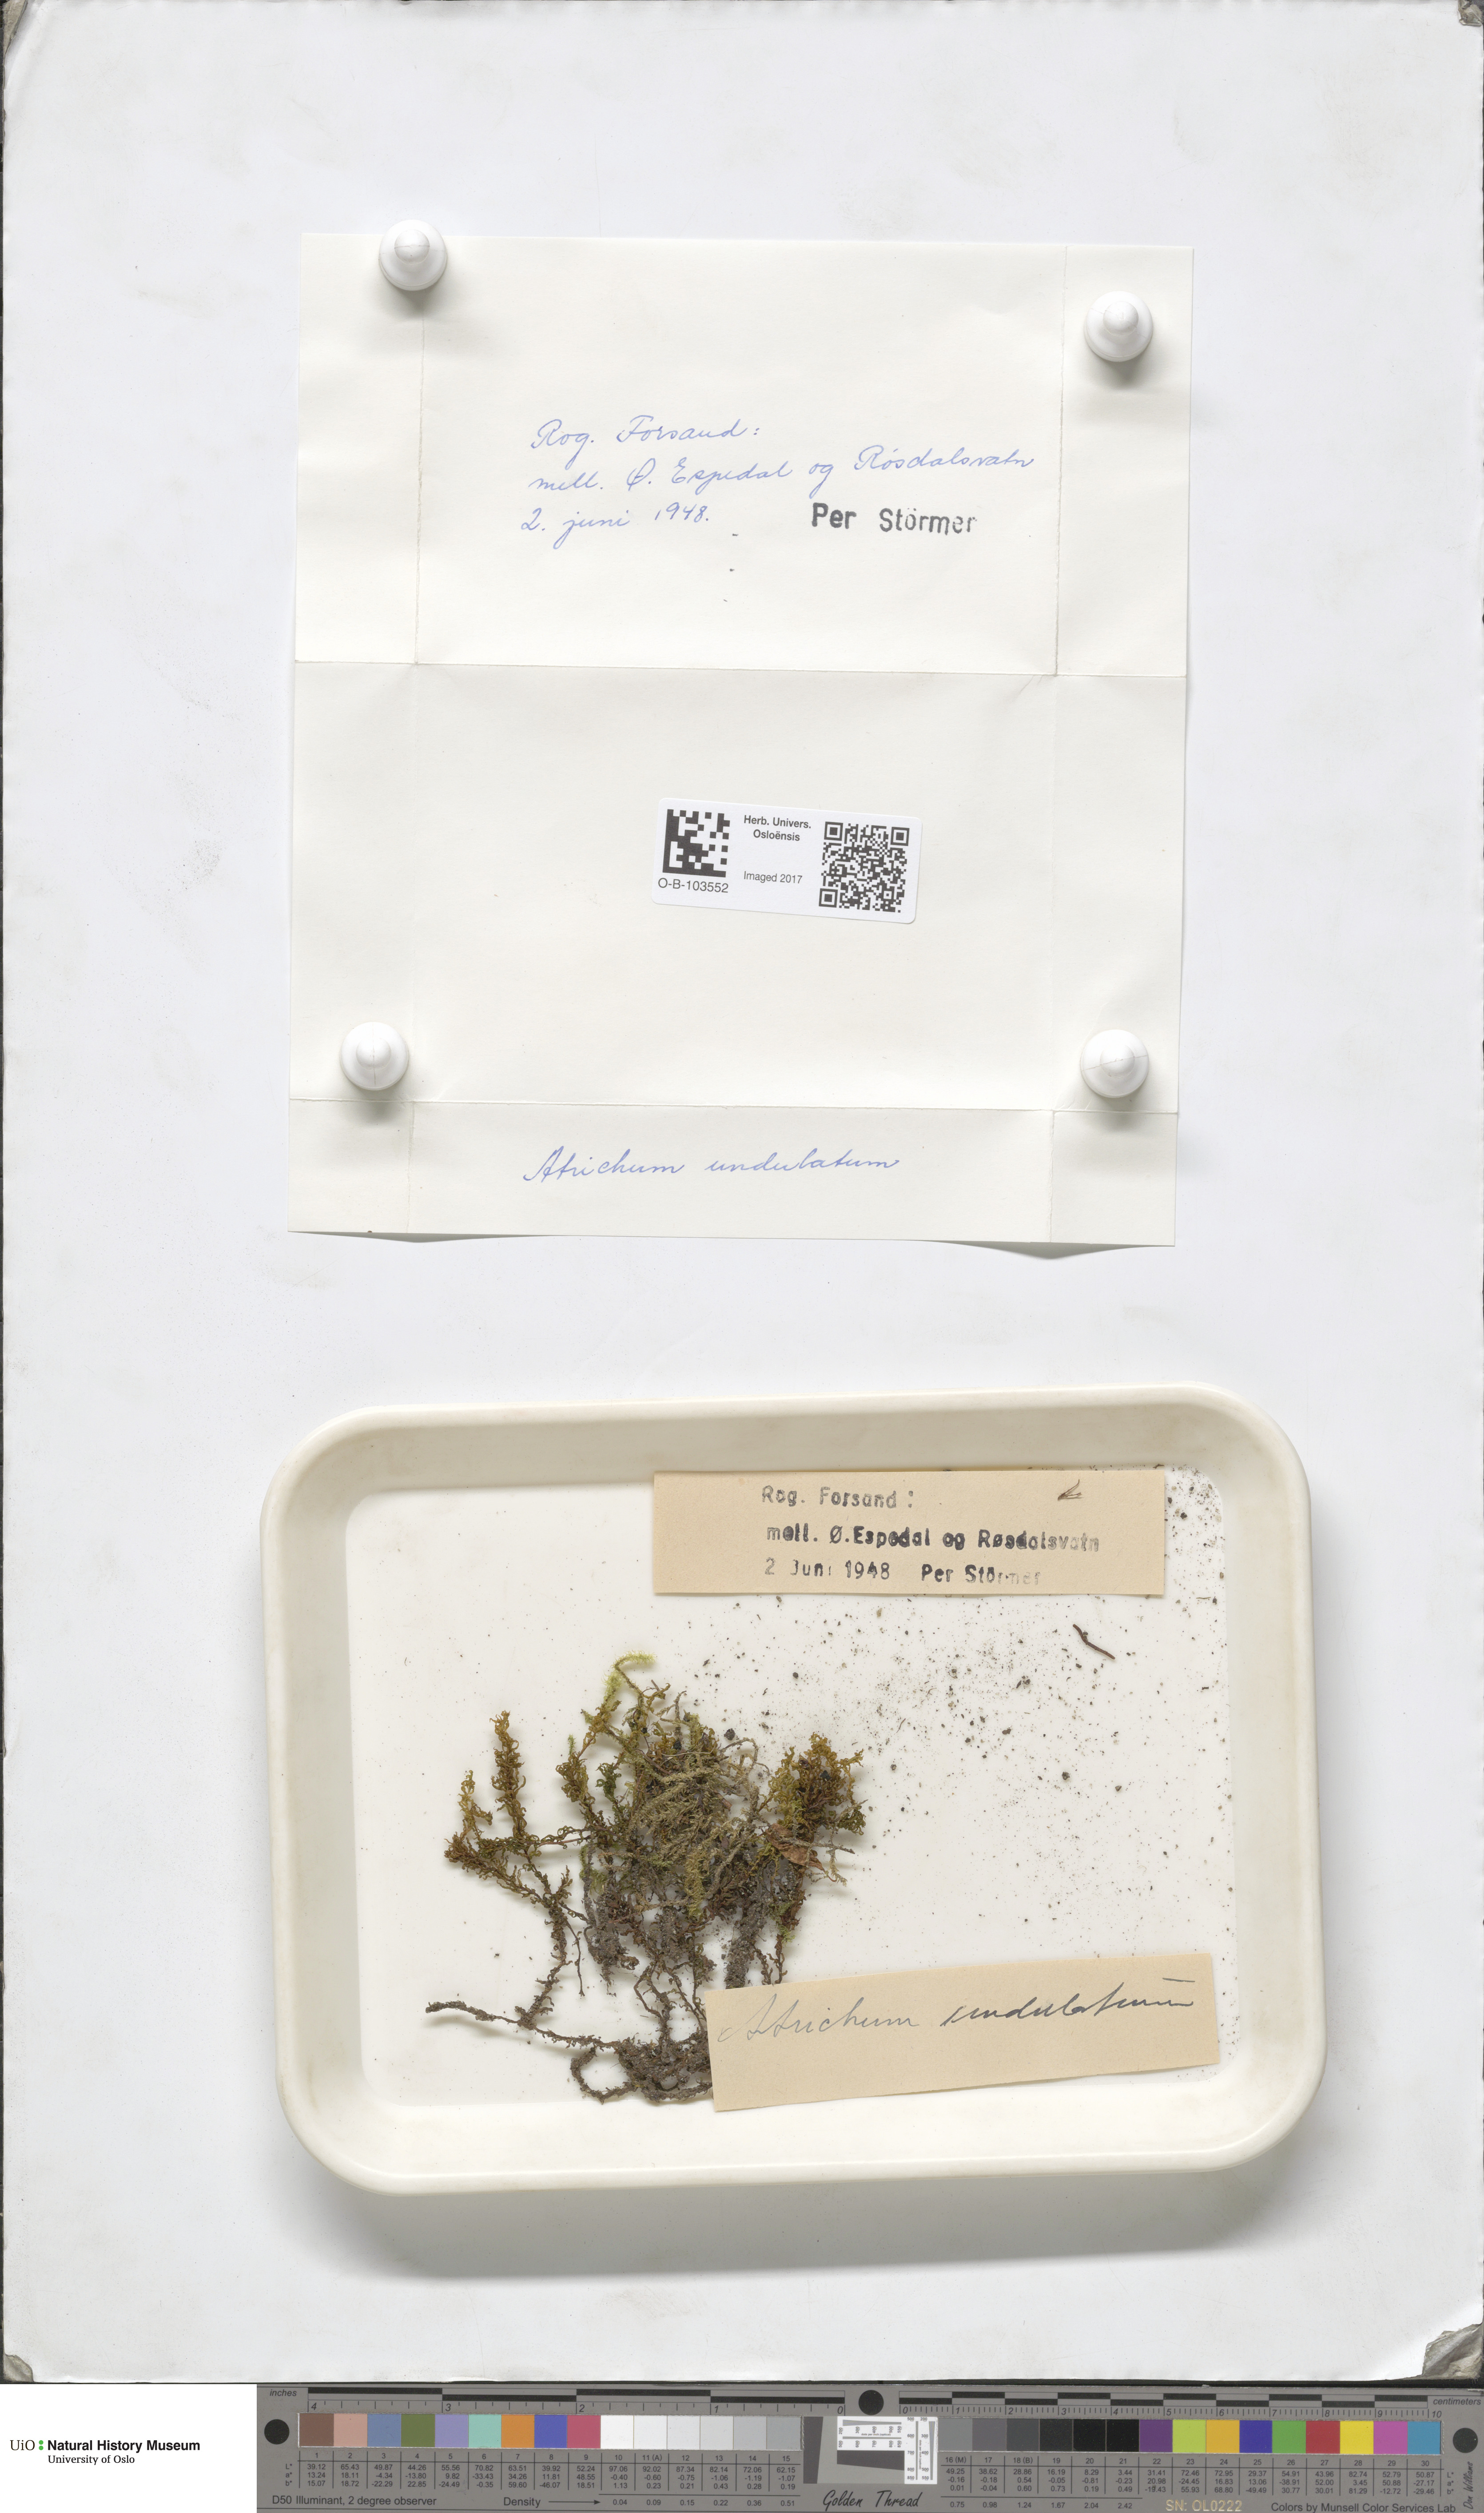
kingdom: Plantae
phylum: Bryophyta
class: Polytrichopsida
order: Polytrichales
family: Polytrichaceae
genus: Atrichum
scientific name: Atrichum undulatum
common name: Common smoothcap
